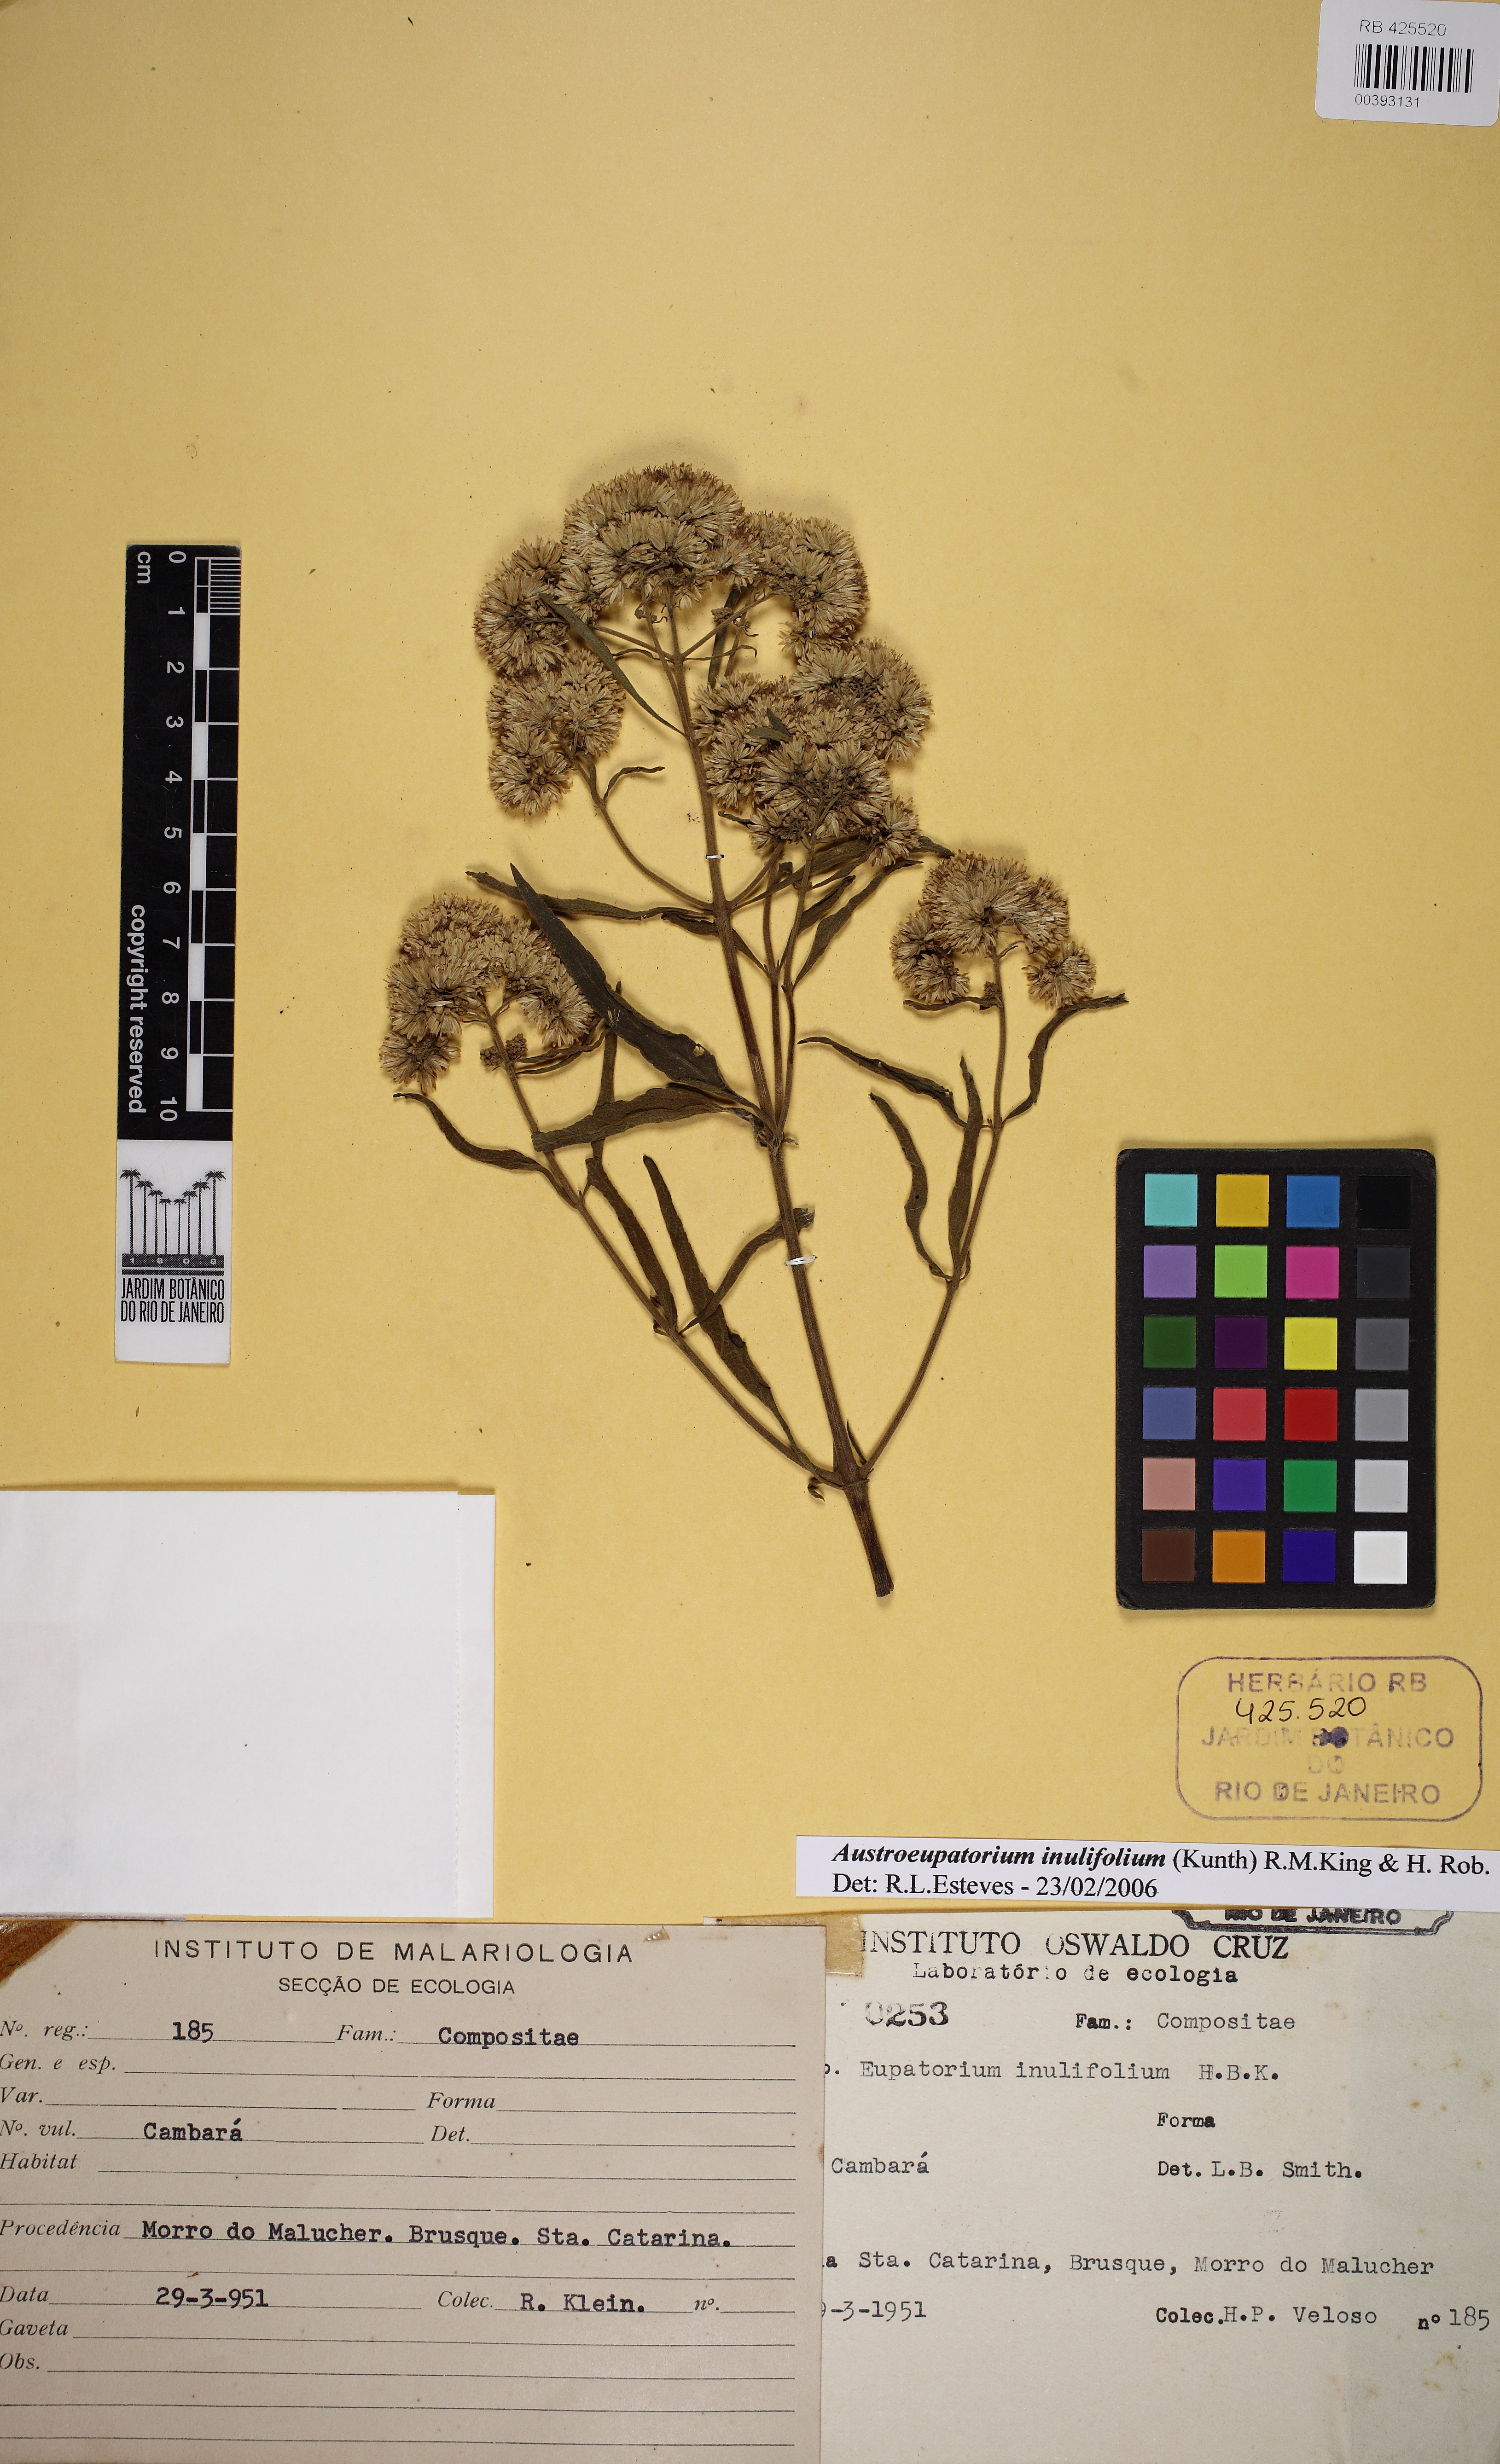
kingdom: Plantae
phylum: Tracheophyta
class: Magnoliopsida
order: Asterales
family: Asteraceae
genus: Austroeupatorium
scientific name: Austroeupatorium inulaefolium
